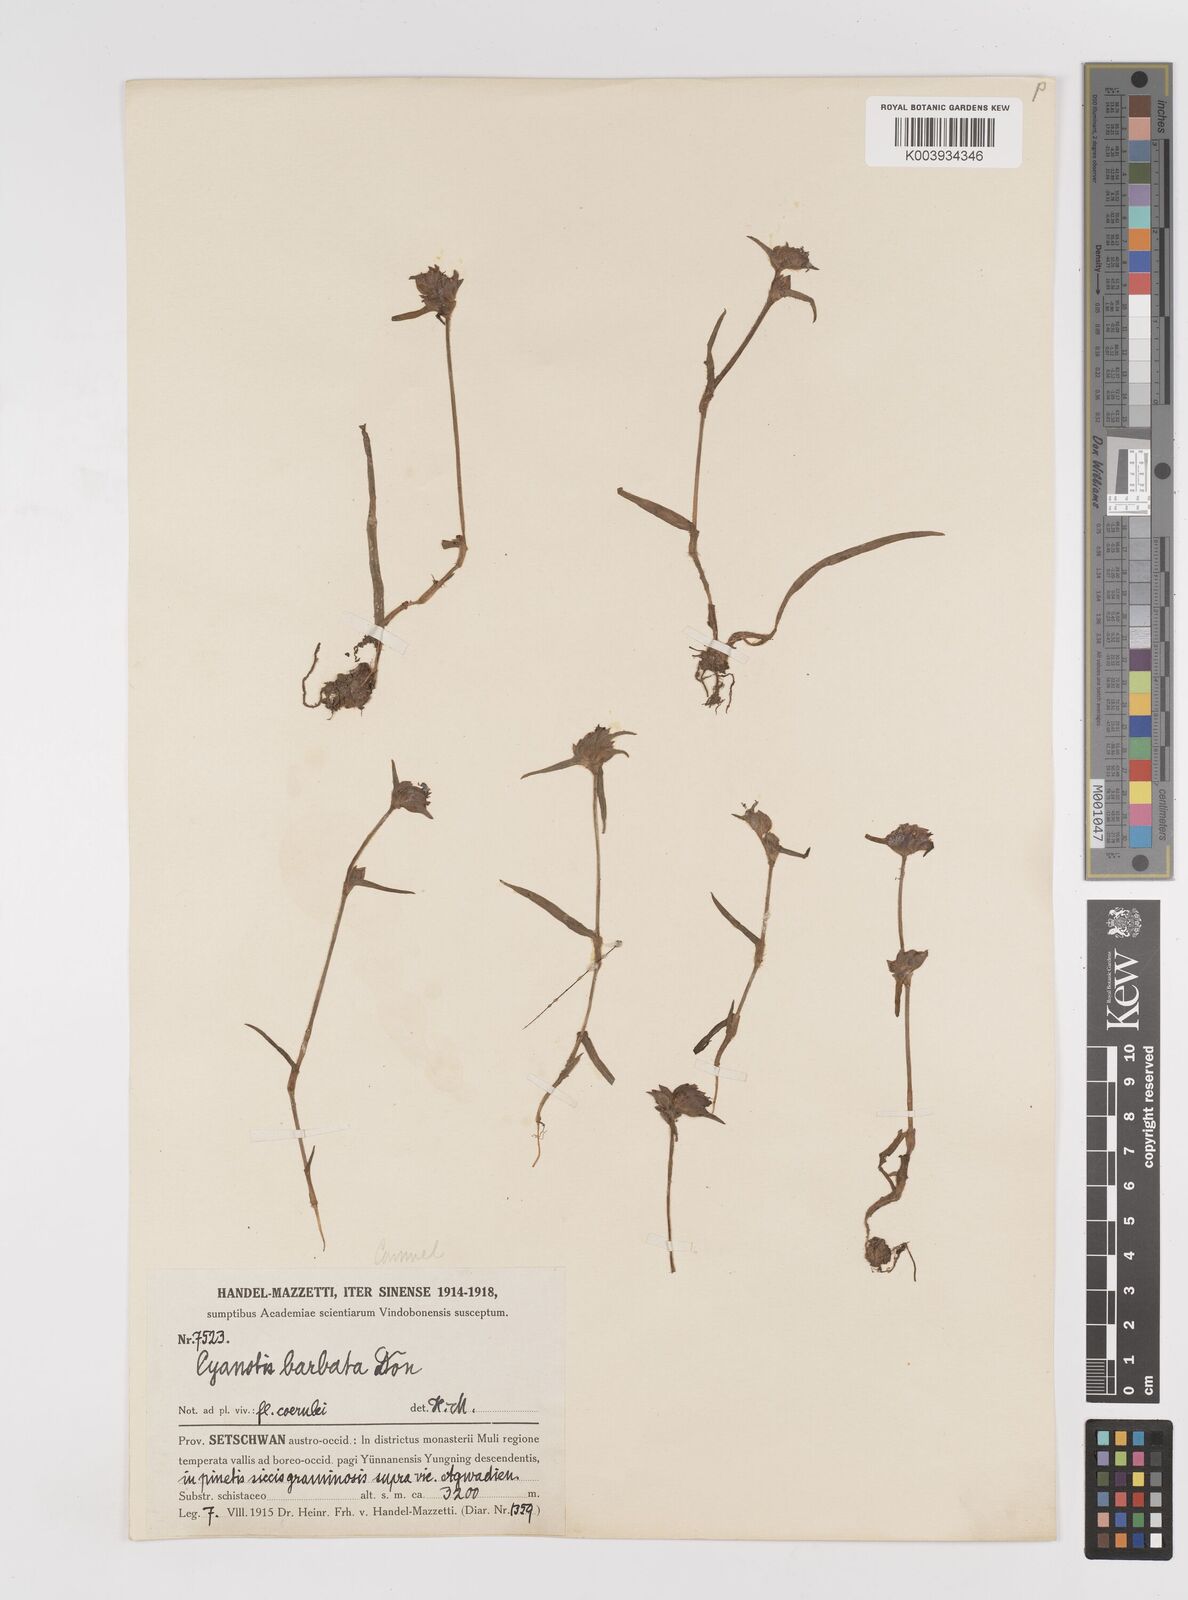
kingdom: Plantae
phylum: Tracheophyta
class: Liliopsida
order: Commelinales
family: Commelinaceae
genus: Cyanotis
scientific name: Cyanotis vaga
